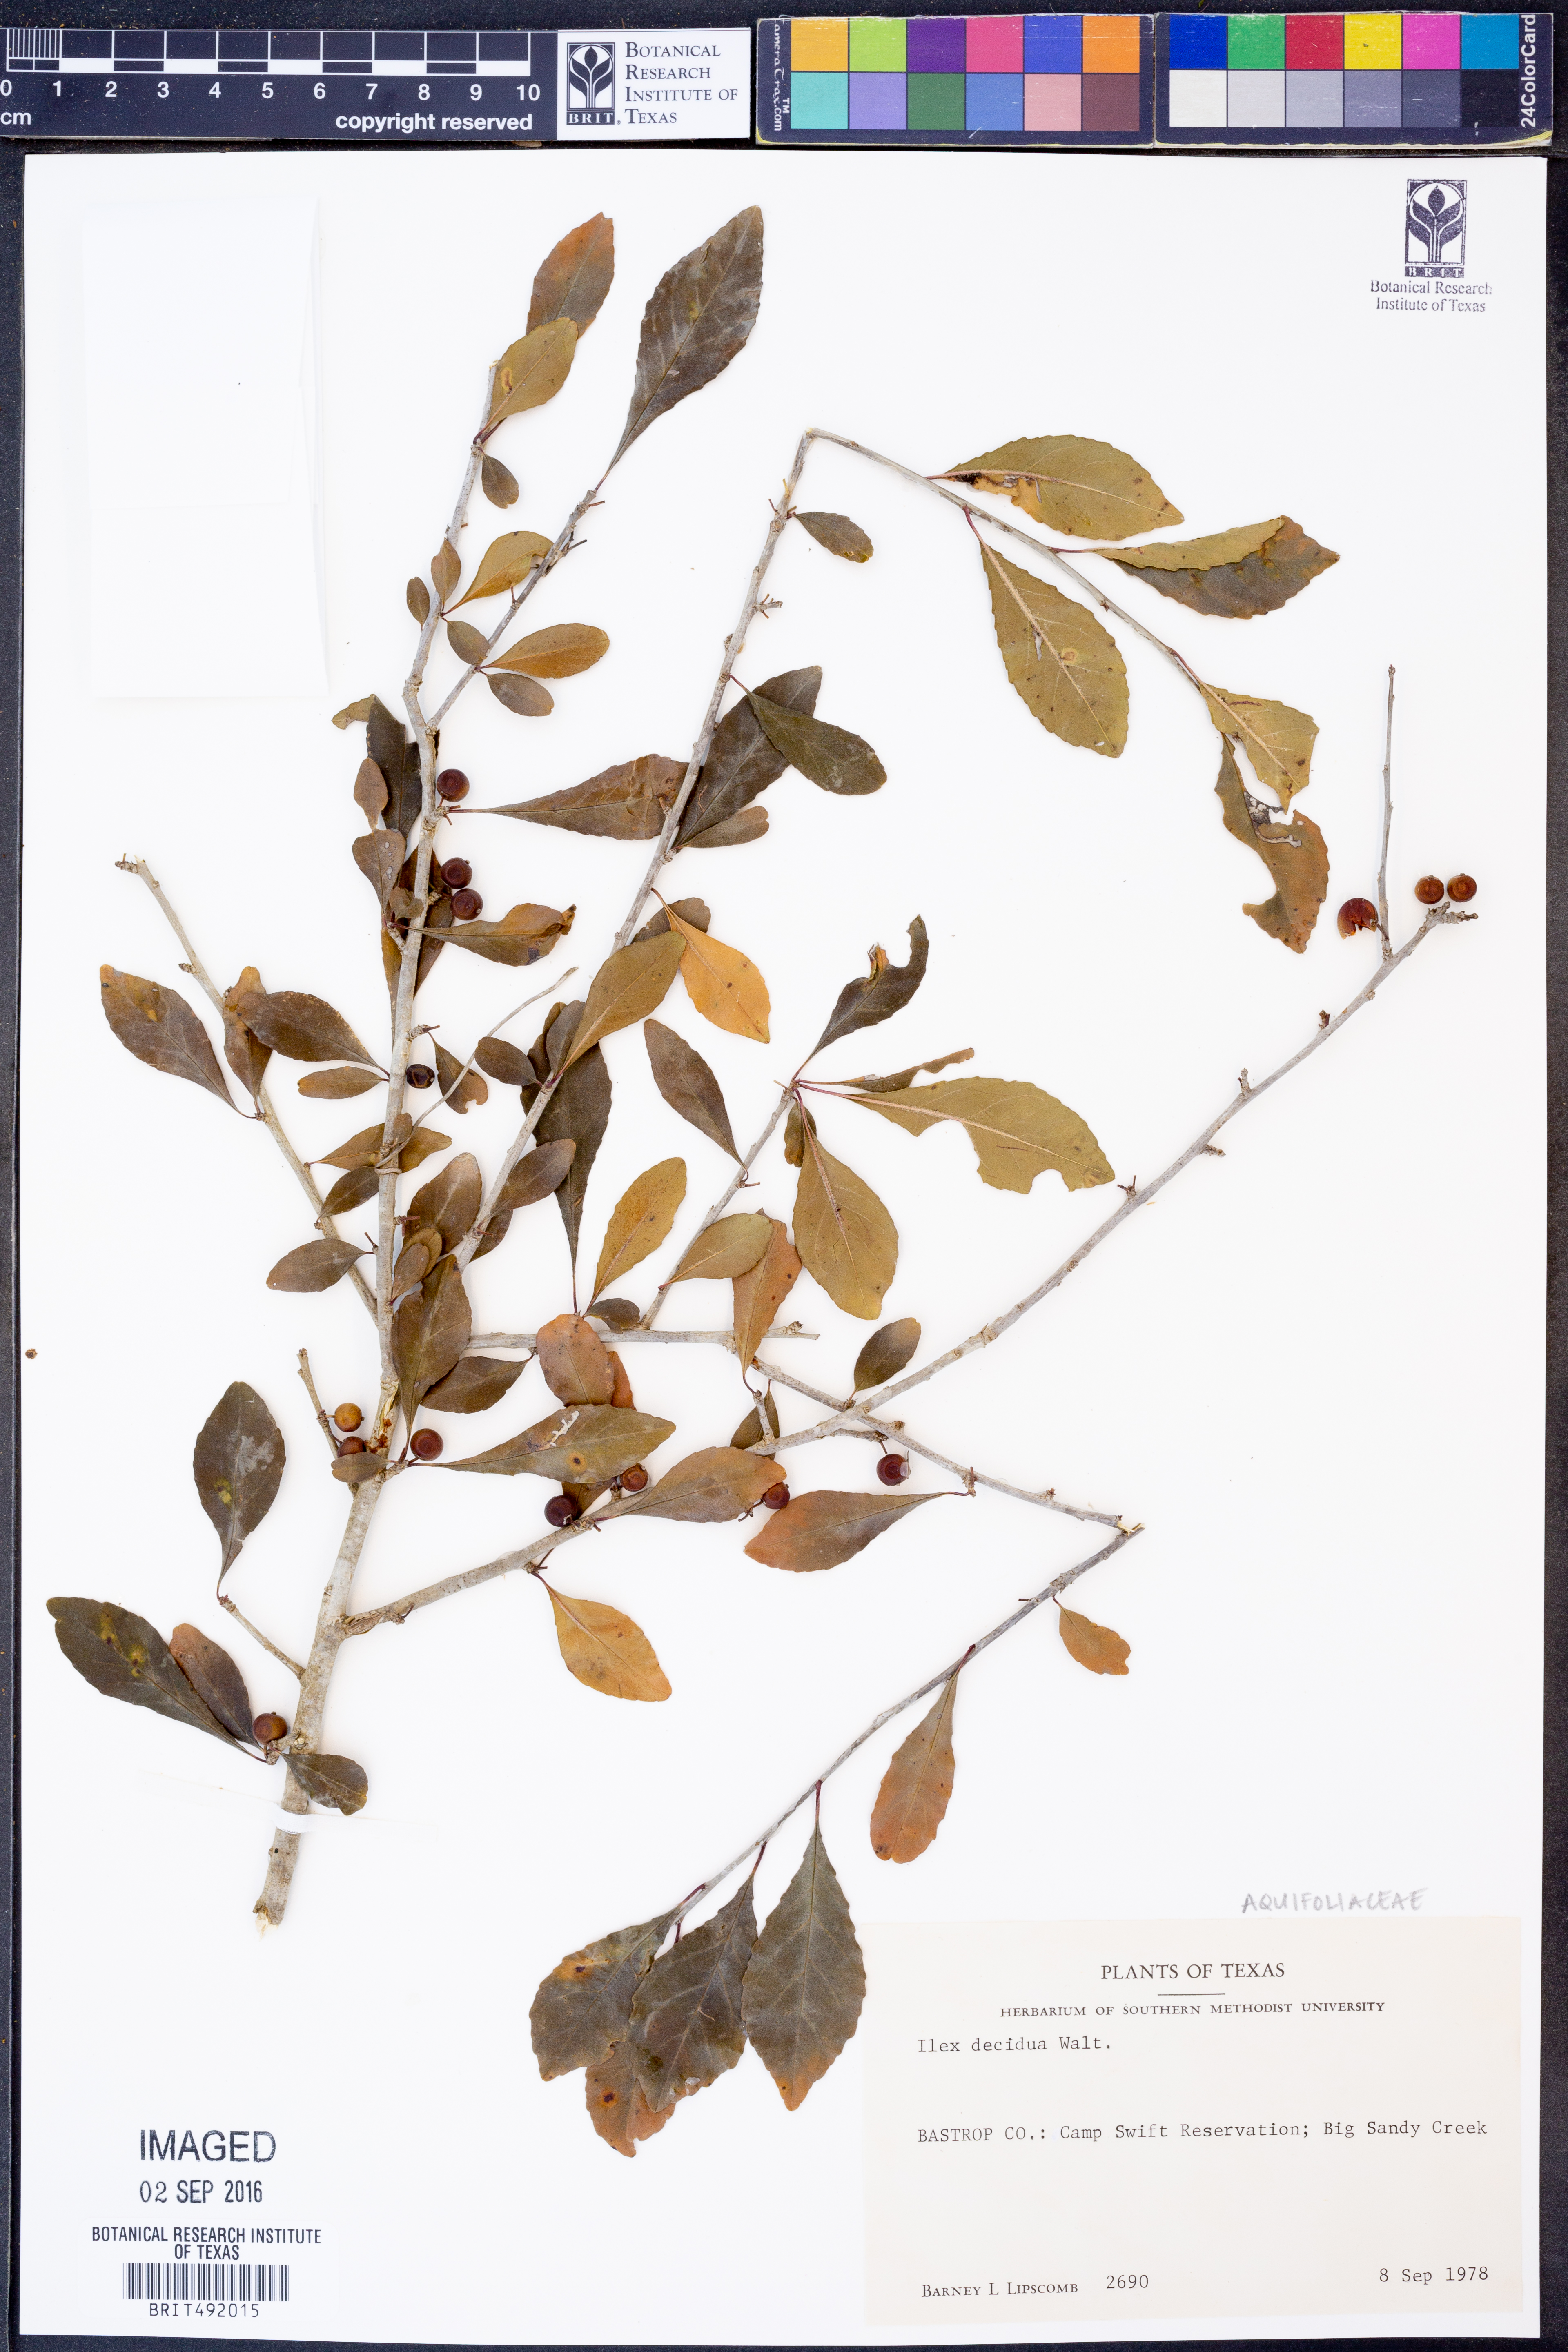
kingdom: Plantae
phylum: Tracheophyta
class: Magnoliopsida
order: Aquifoliales
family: Aquifoliaceae
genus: Ilex
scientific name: Ilex decidua
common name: Possum-haw
